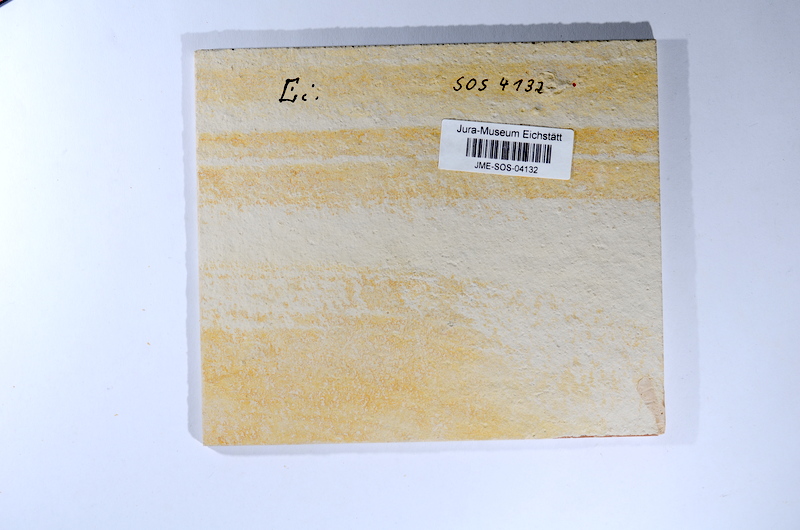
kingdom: Animalia
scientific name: Animalia
